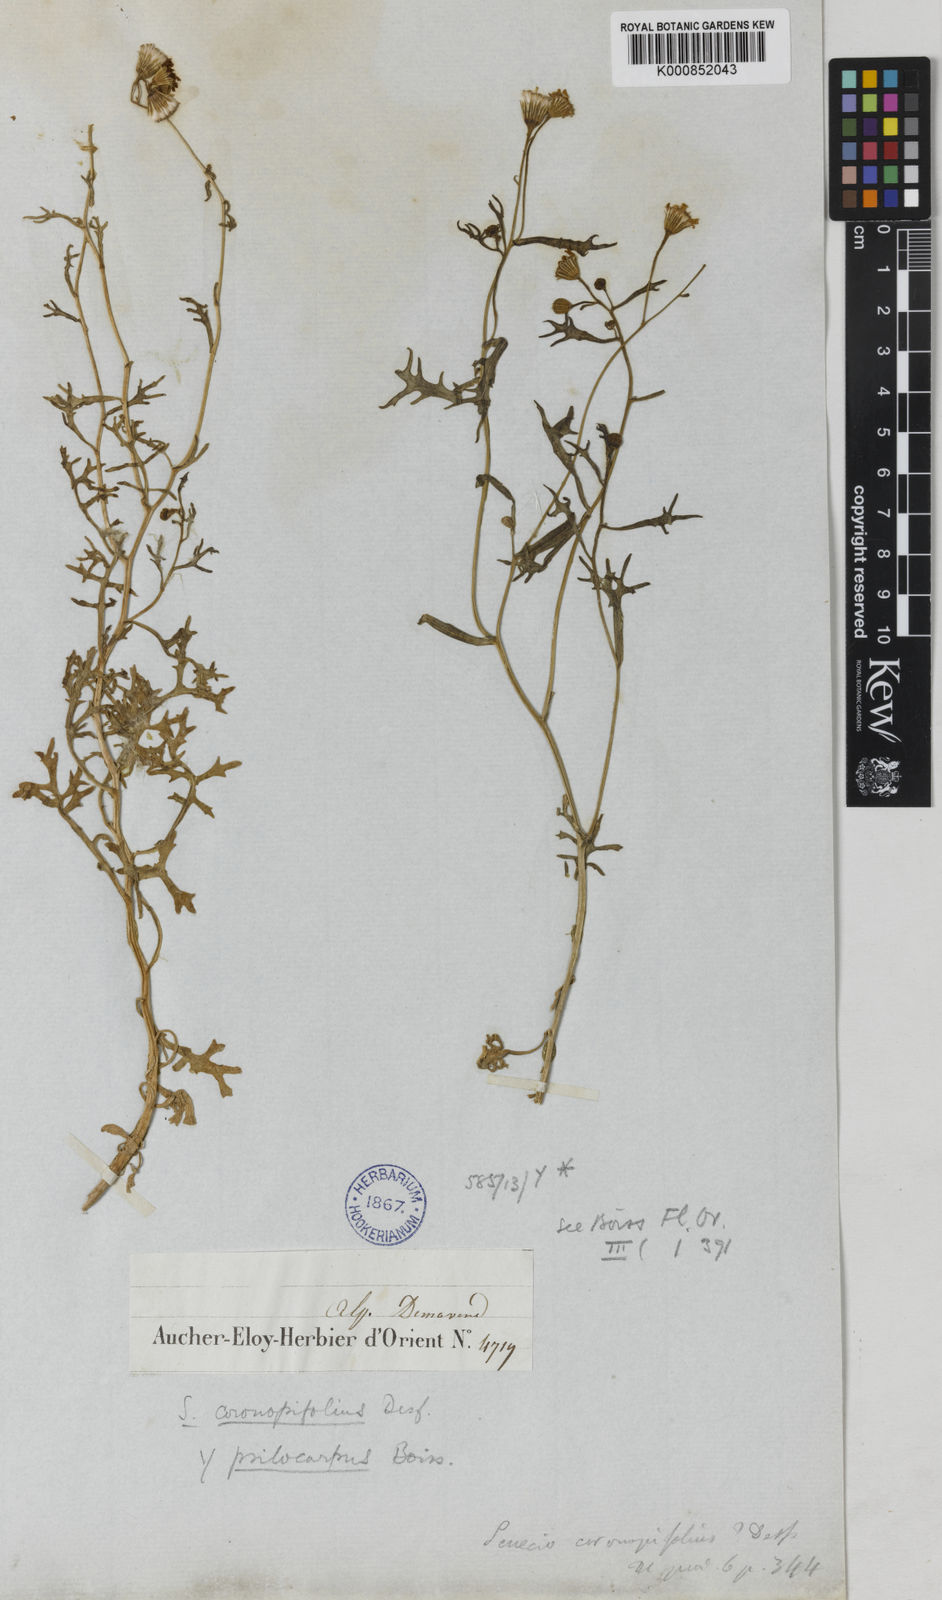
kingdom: Plantae
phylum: Tracheophyta
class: Magnoliopsida
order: Asterales
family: Asteraceae
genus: Senecio
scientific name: Senecio glaucus
